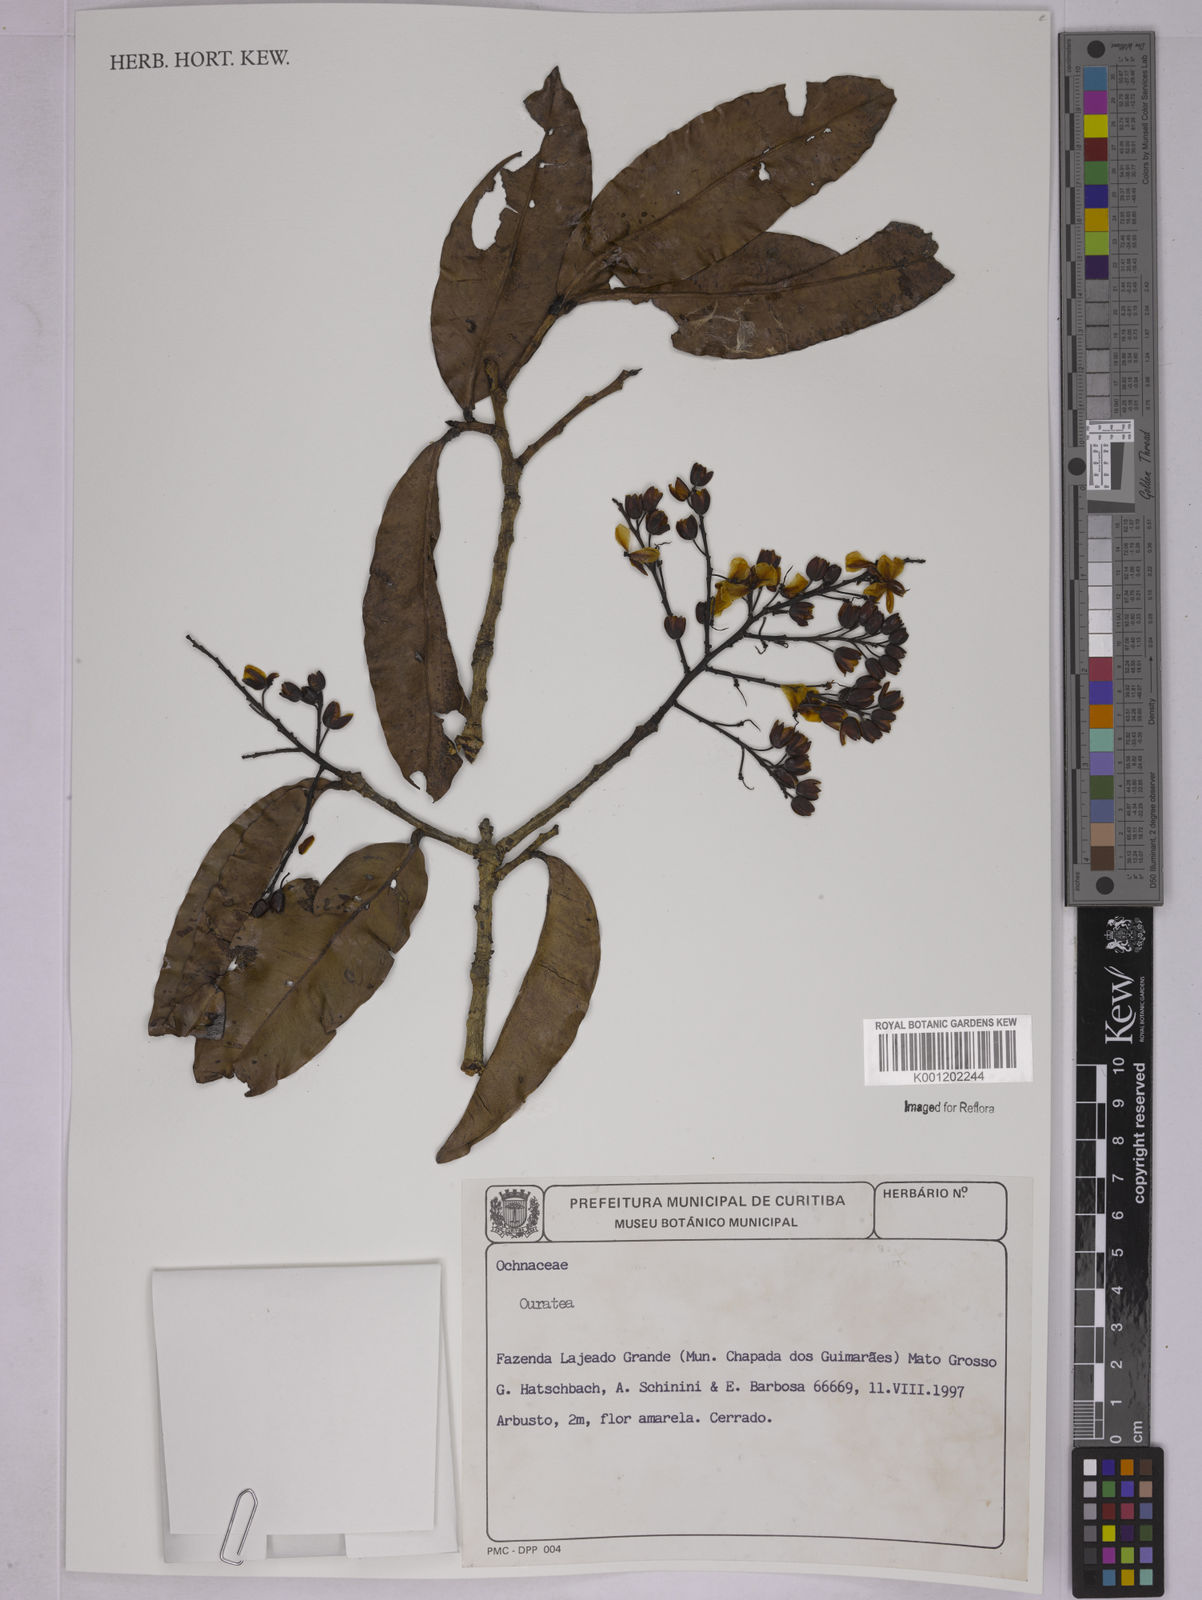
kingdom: Plantae
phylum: Tracheophyta
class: Magnoliopsida
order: Malpighiales
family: Ochnaceae
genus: Ouratea
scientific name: Ouratea
